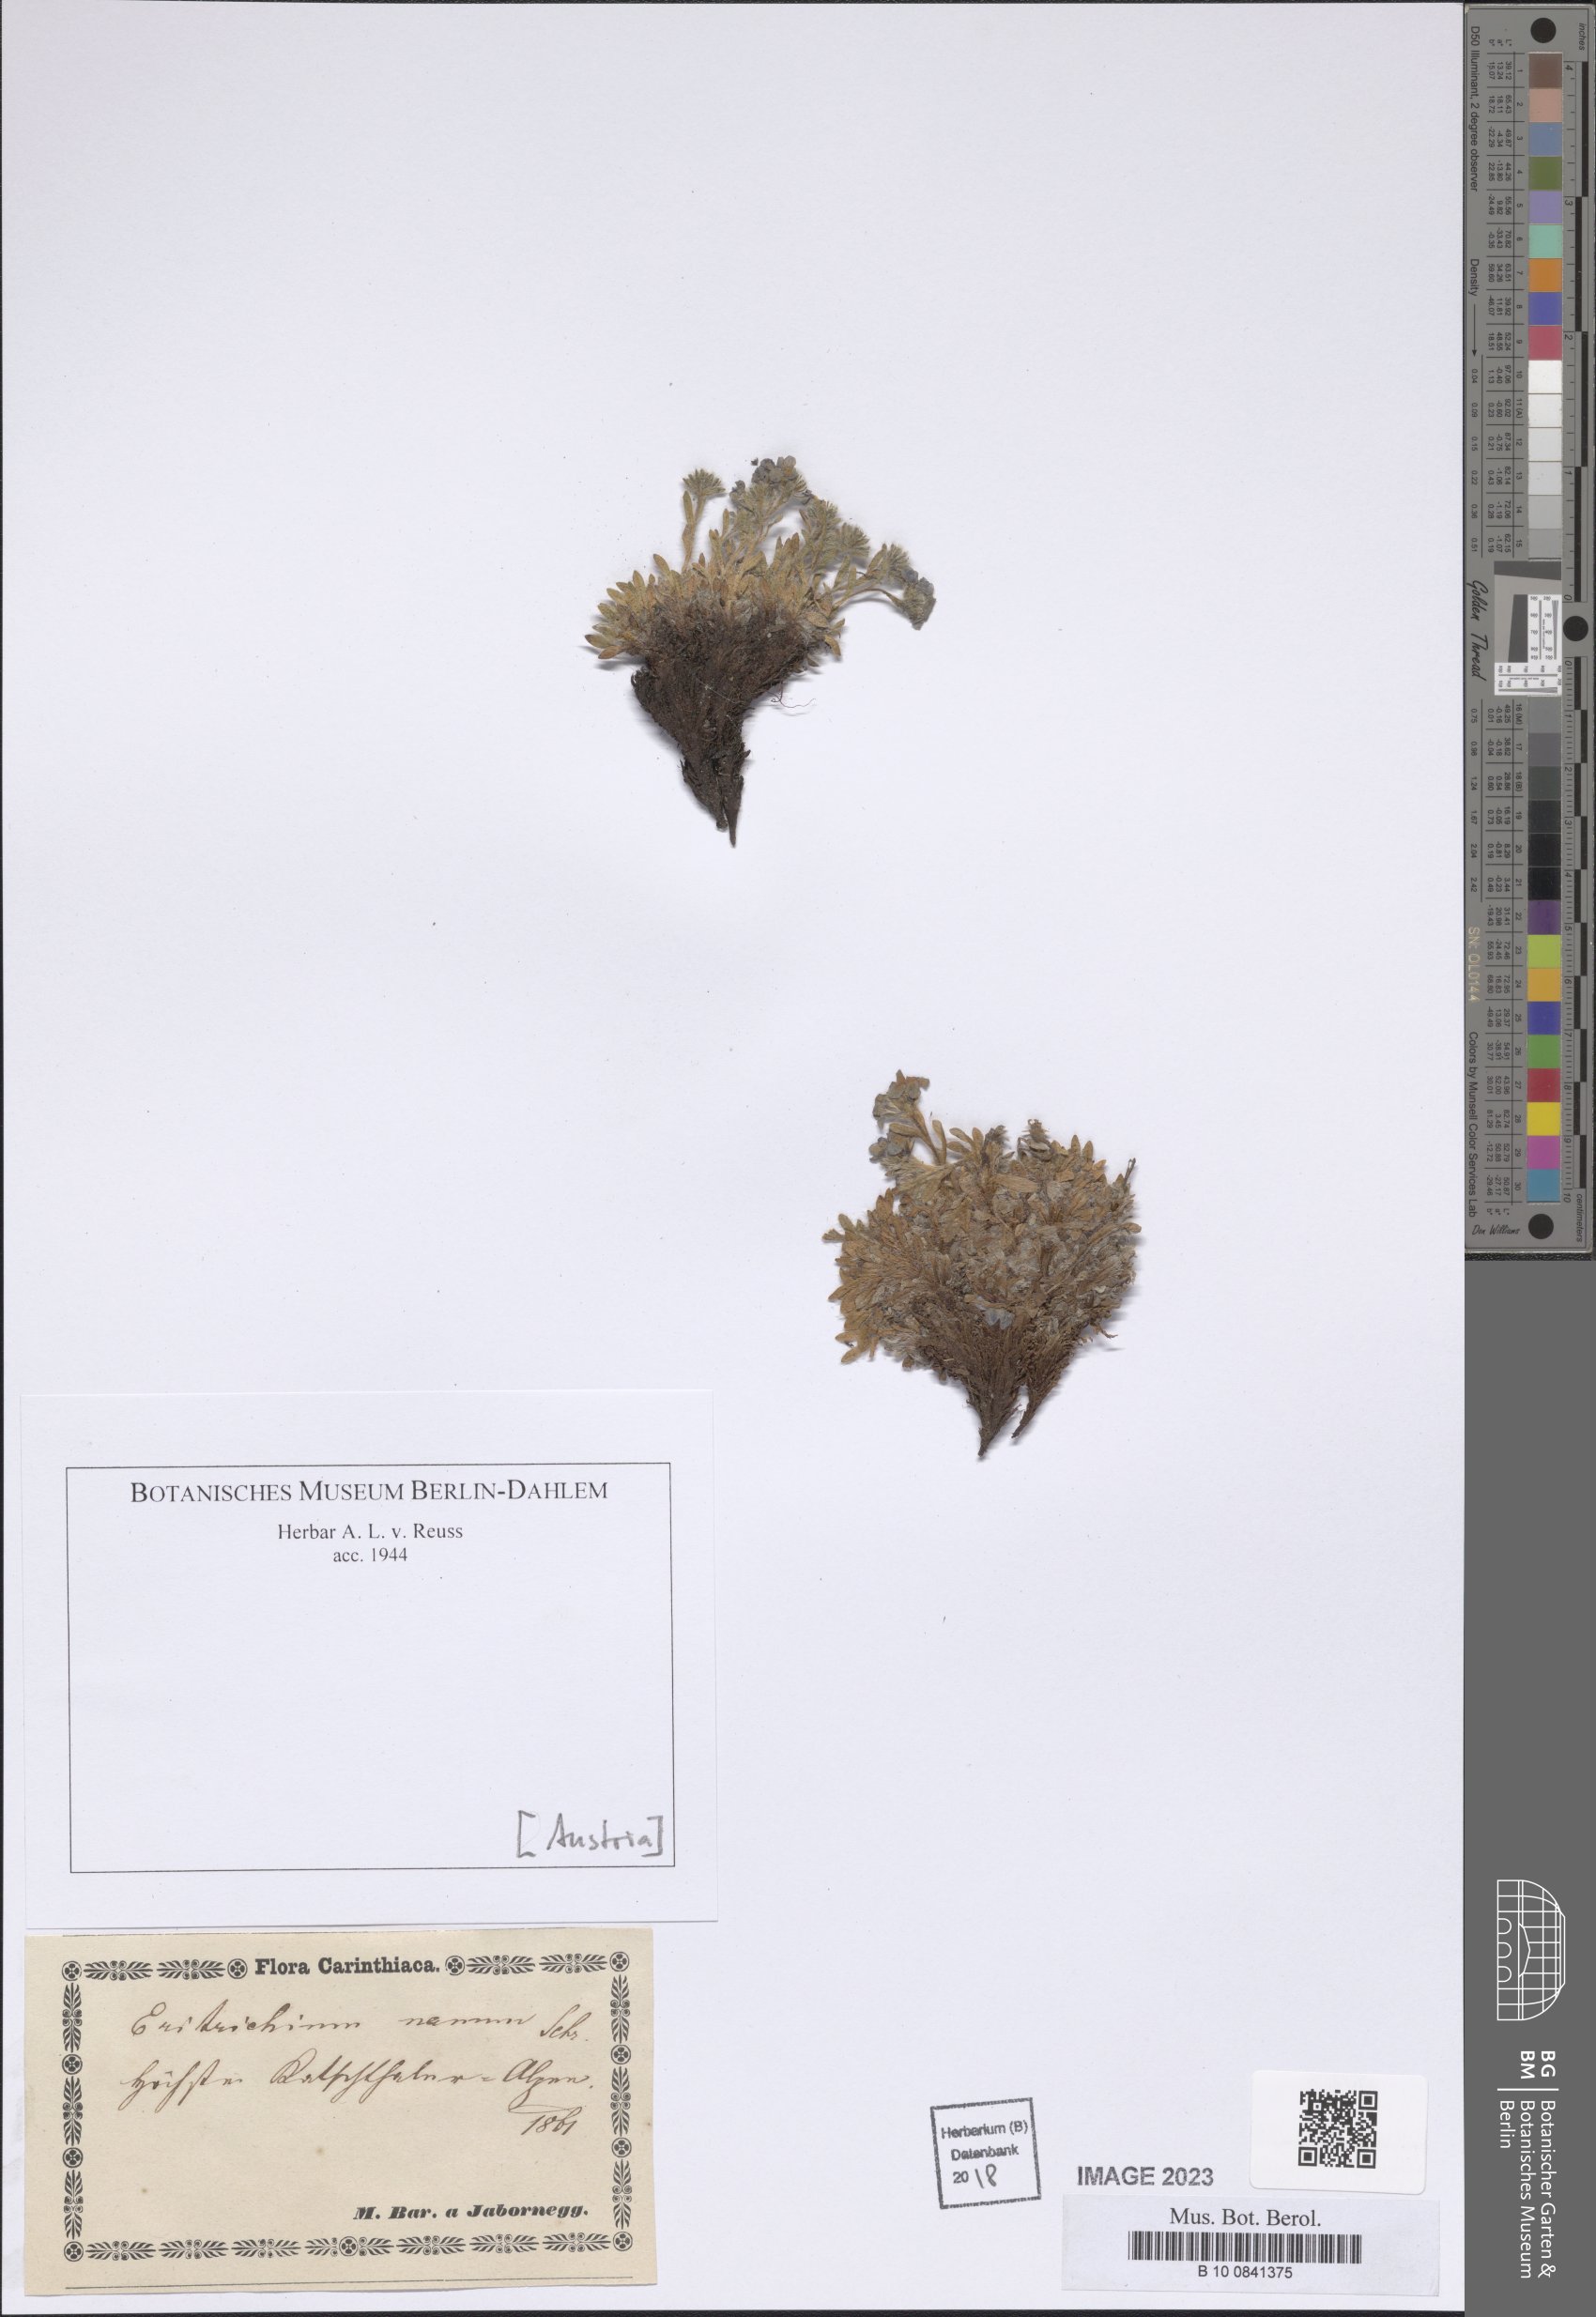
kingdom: Plantae
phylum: Tracheophyta
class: Magnoliopsida
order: Boraginales
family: Boraginaceae
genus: Eritrichium
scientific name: Eritrichium nanum
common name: King-of-the-alps
